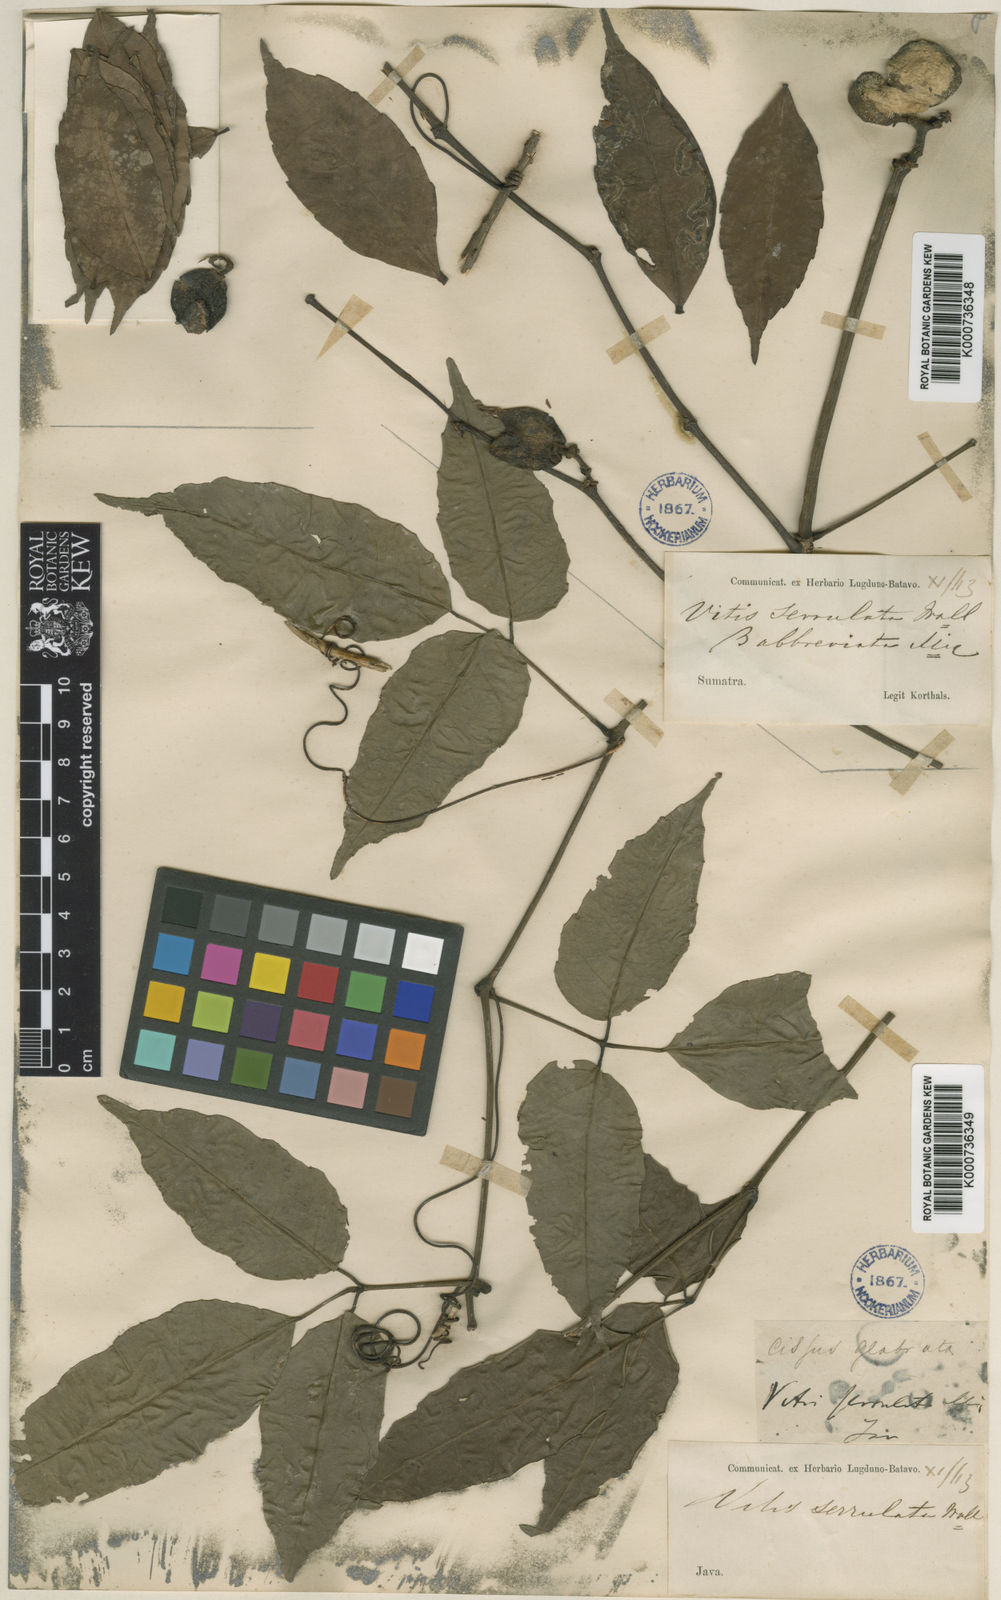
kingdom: Plantae
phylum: Tracheophyta
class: Magnoliopsida
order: Vitales
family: Vitaceae
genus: Tetrastigma
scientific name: Tetrastigma serrulatum
